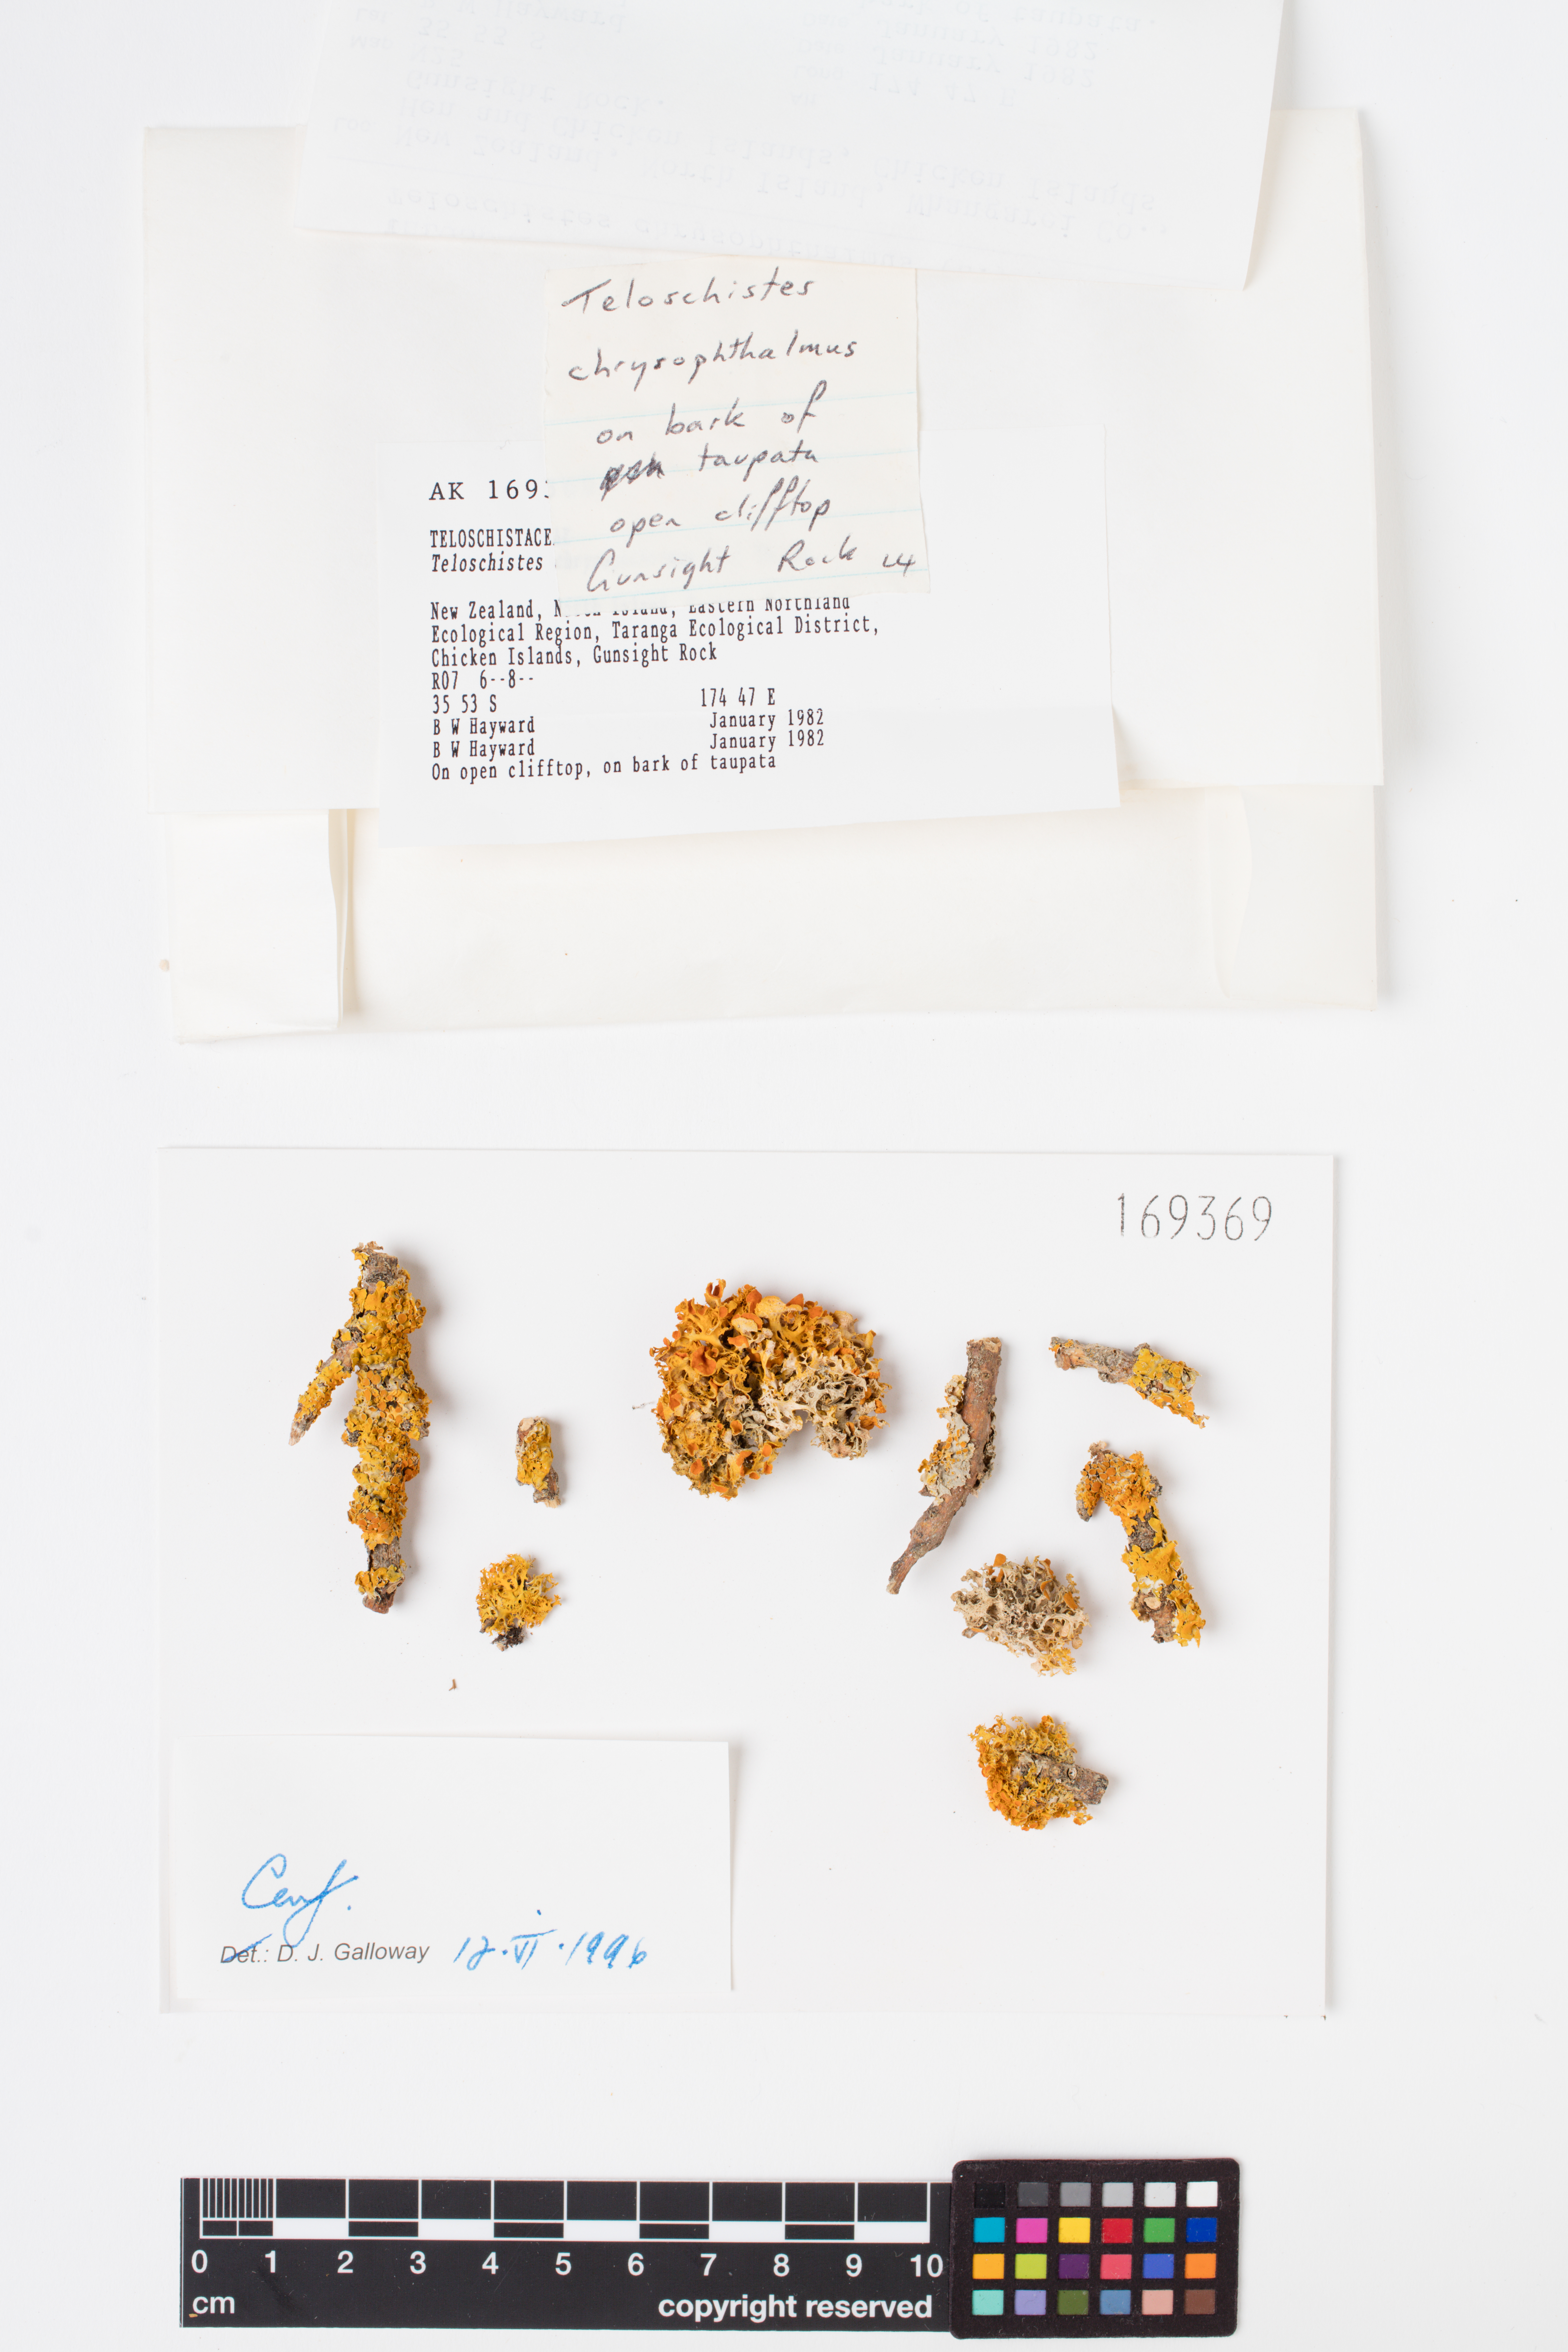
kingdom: Fungi
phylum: Ascomycota
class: Lecanoromycetes
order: Teloschistales
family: Teloschistaceae
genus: Niorma
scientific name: Niorma chrysophthalma
